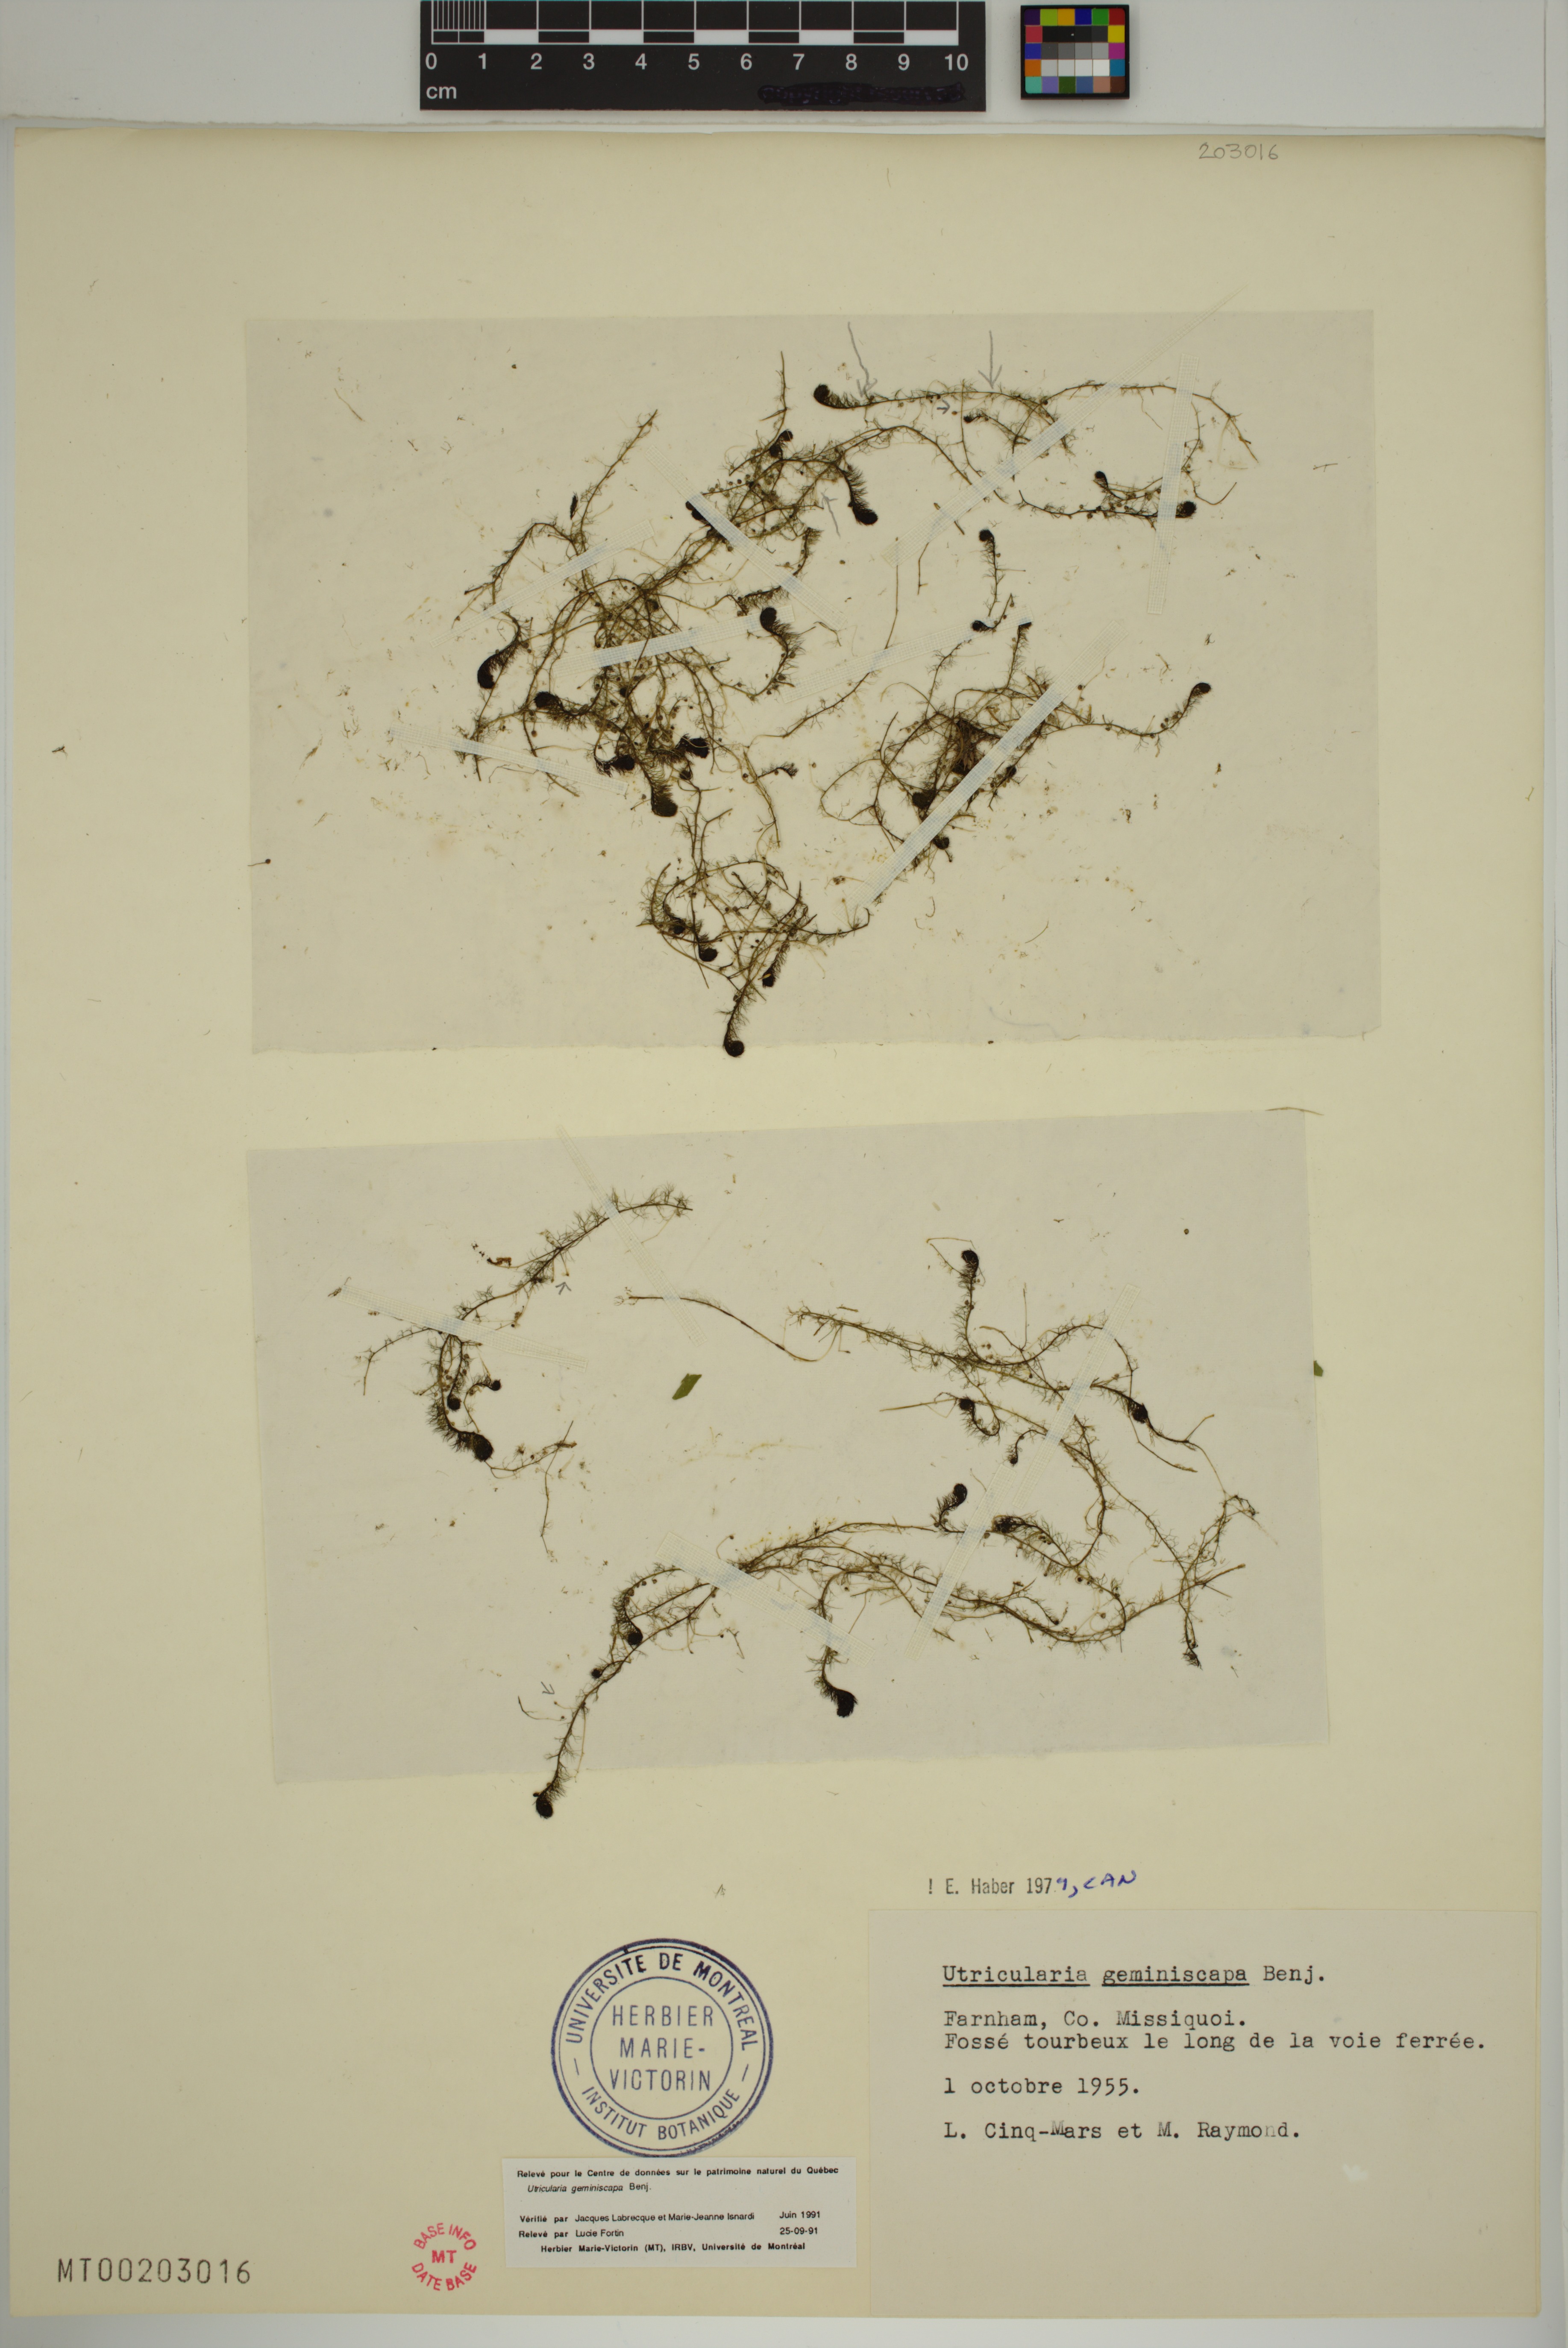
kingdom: Plantae
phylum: Tracheophyta
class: Magnoliopsida
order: Lamiales
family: Lentibulariaceae
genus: Utricularia
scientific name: Utricularia geminiscapa
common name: Hidden-fruit bladderwort
